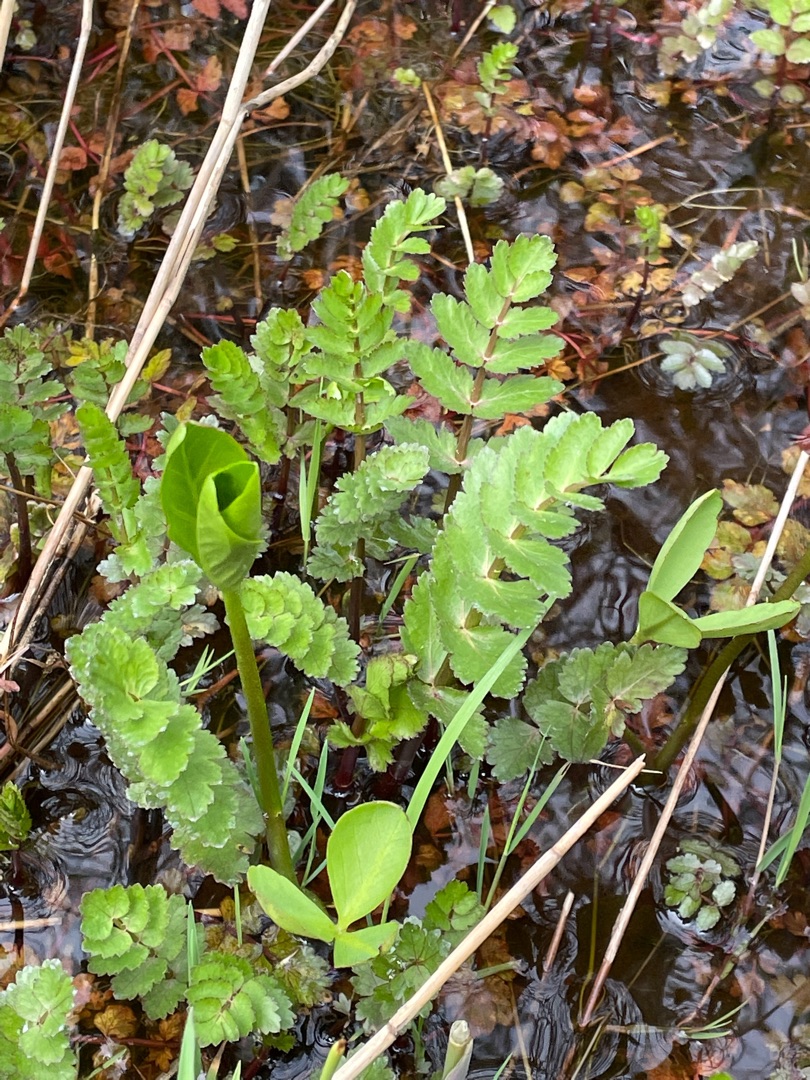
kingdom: Plantae
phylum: Tracheophyta
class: Magnoliopsida
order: Apiales
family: Apiaceae
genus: Berula
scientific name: Berula erecta
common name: Sideskærm
